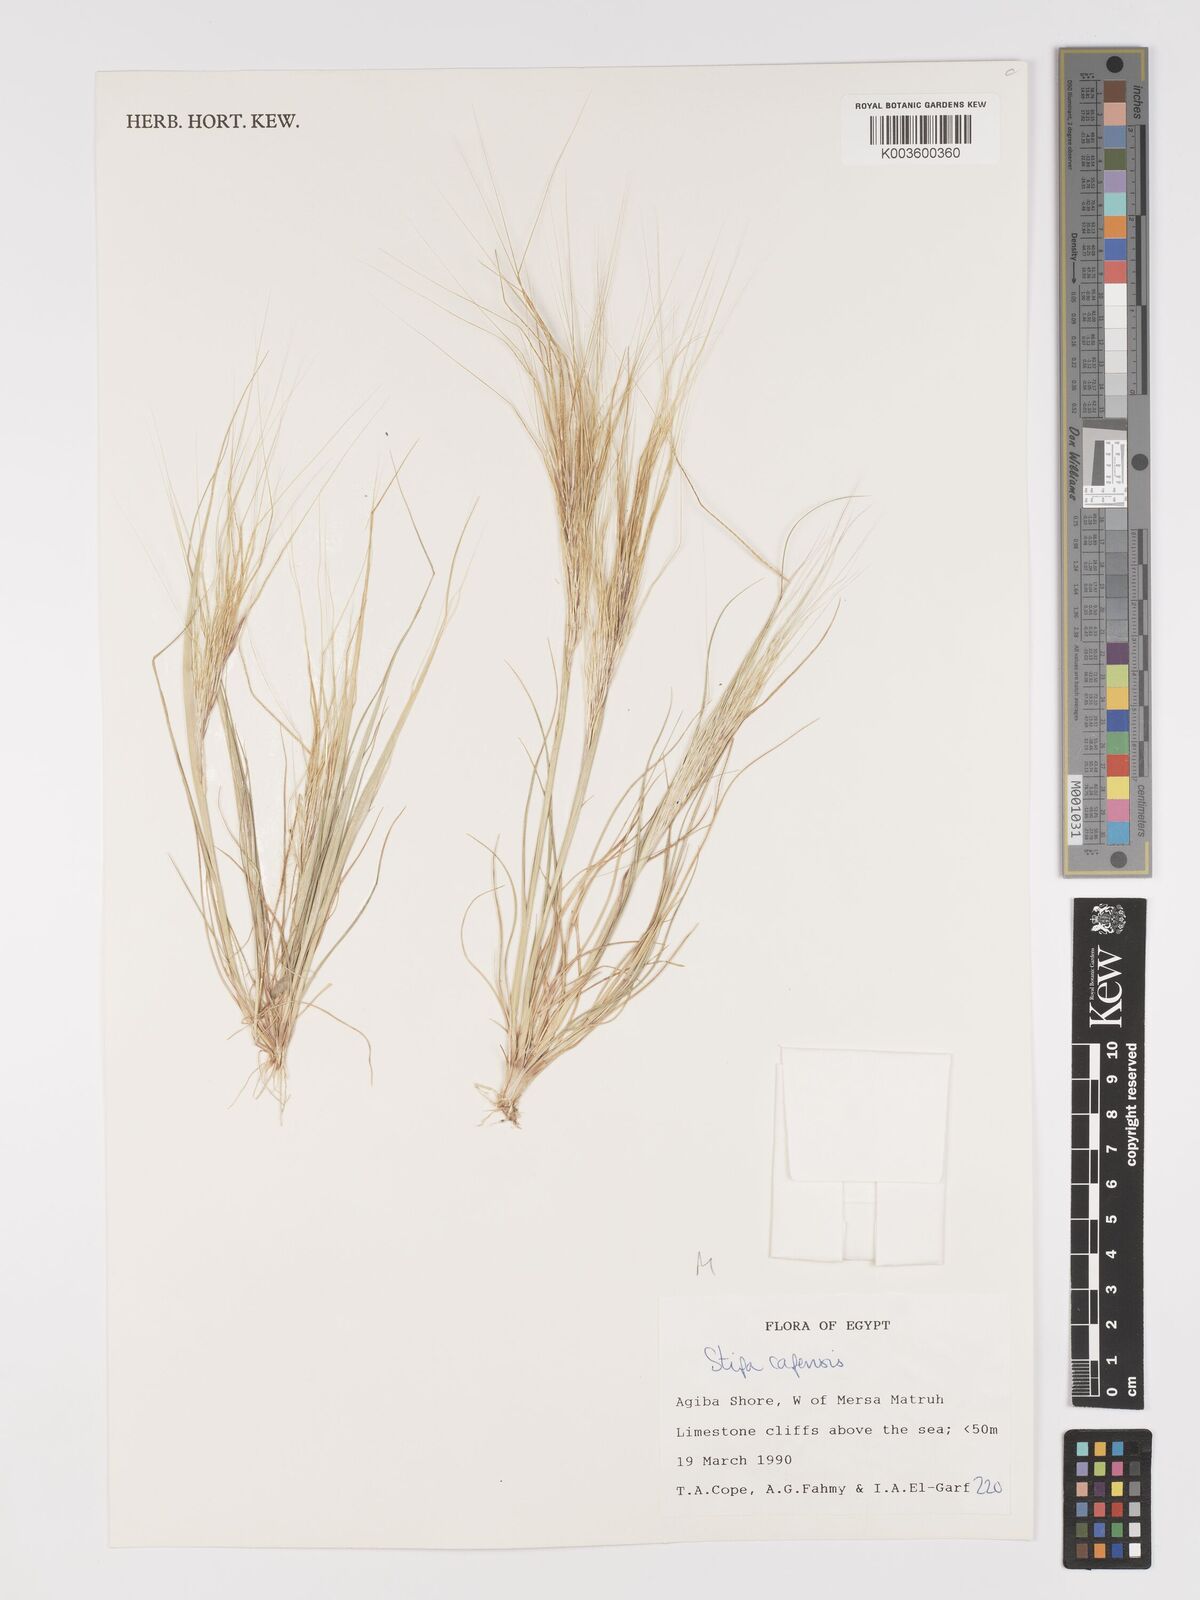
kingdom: Plantae
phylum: Tracheophyta
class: Liliopsida
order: Poales
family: Poaceae
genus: Stipellula
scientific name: Stipellula capensis
